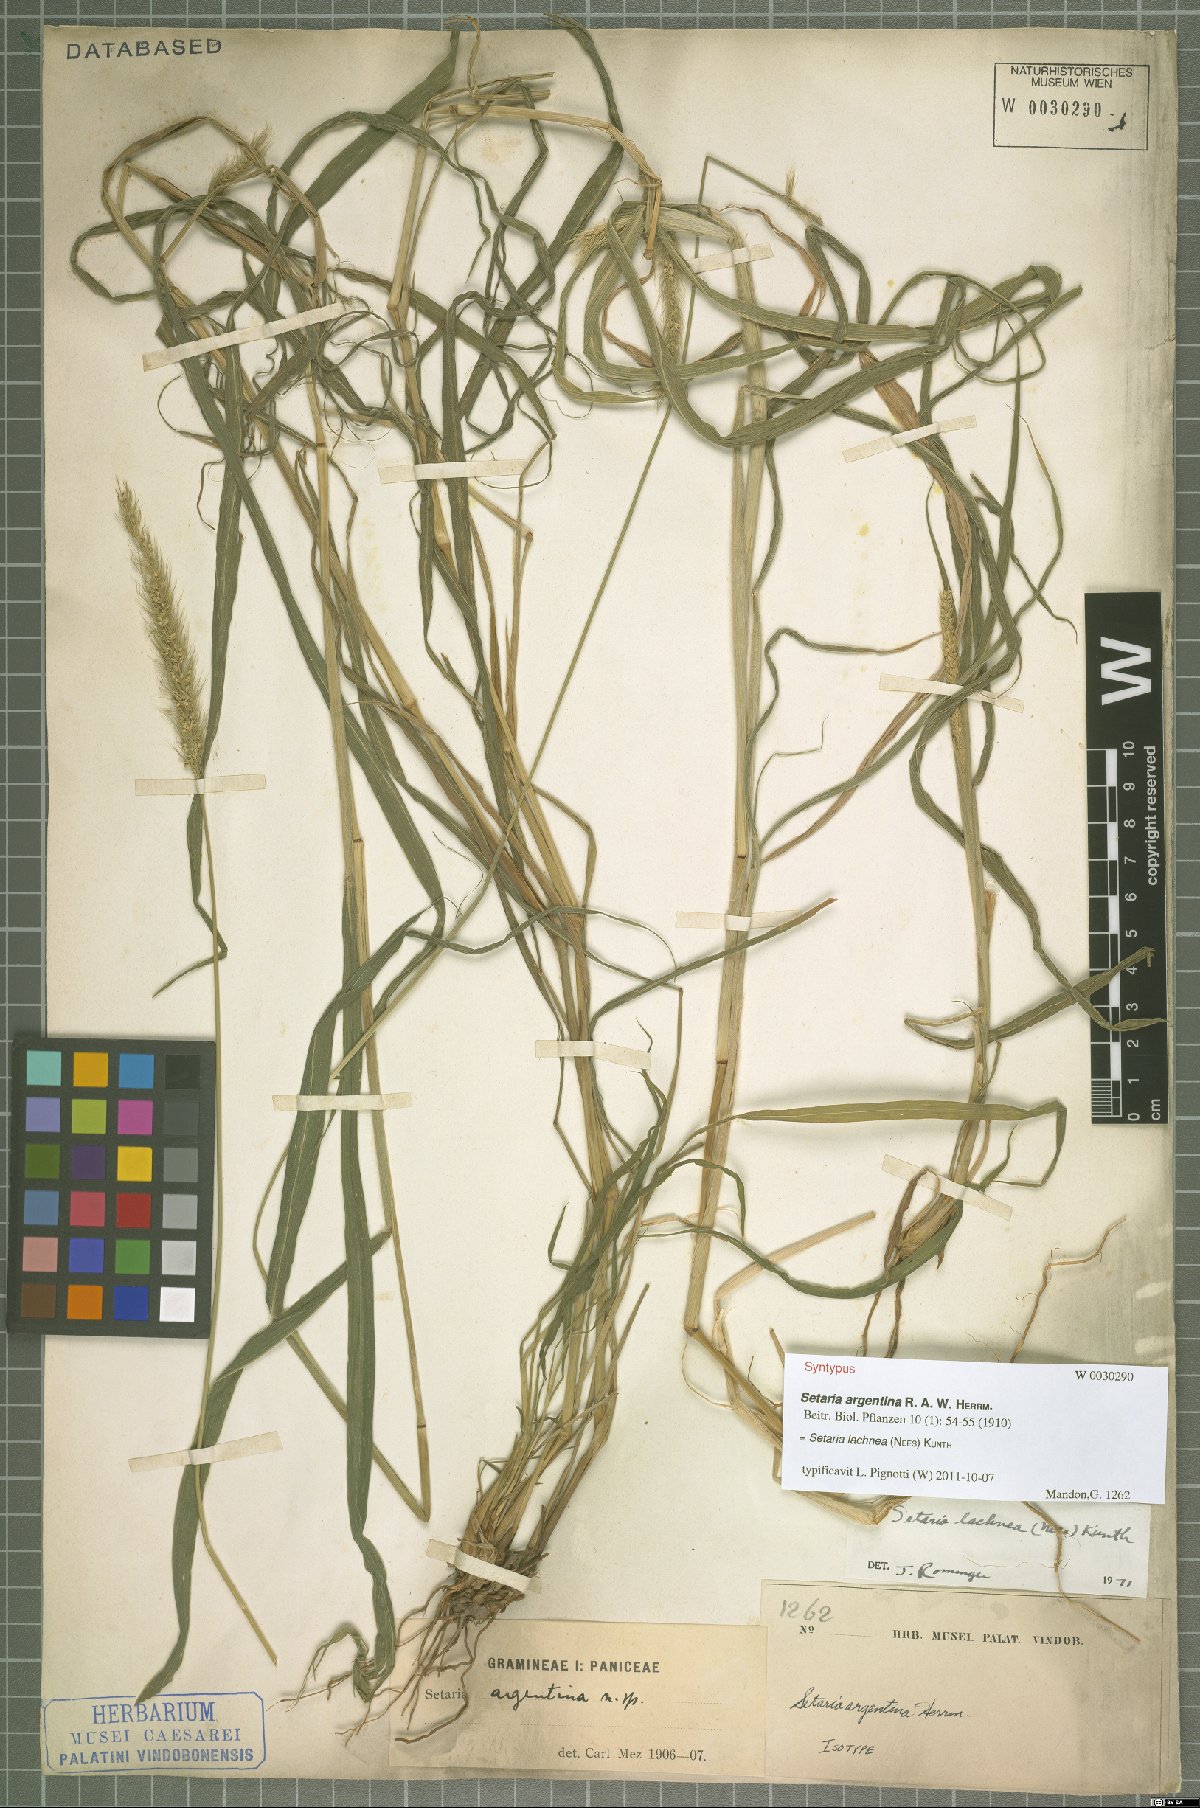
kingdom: Plantae
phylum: Tracheophyta
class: Liliopsida
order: Poales
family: Poaceae
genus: Setaria
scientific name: Setaria lachnea
